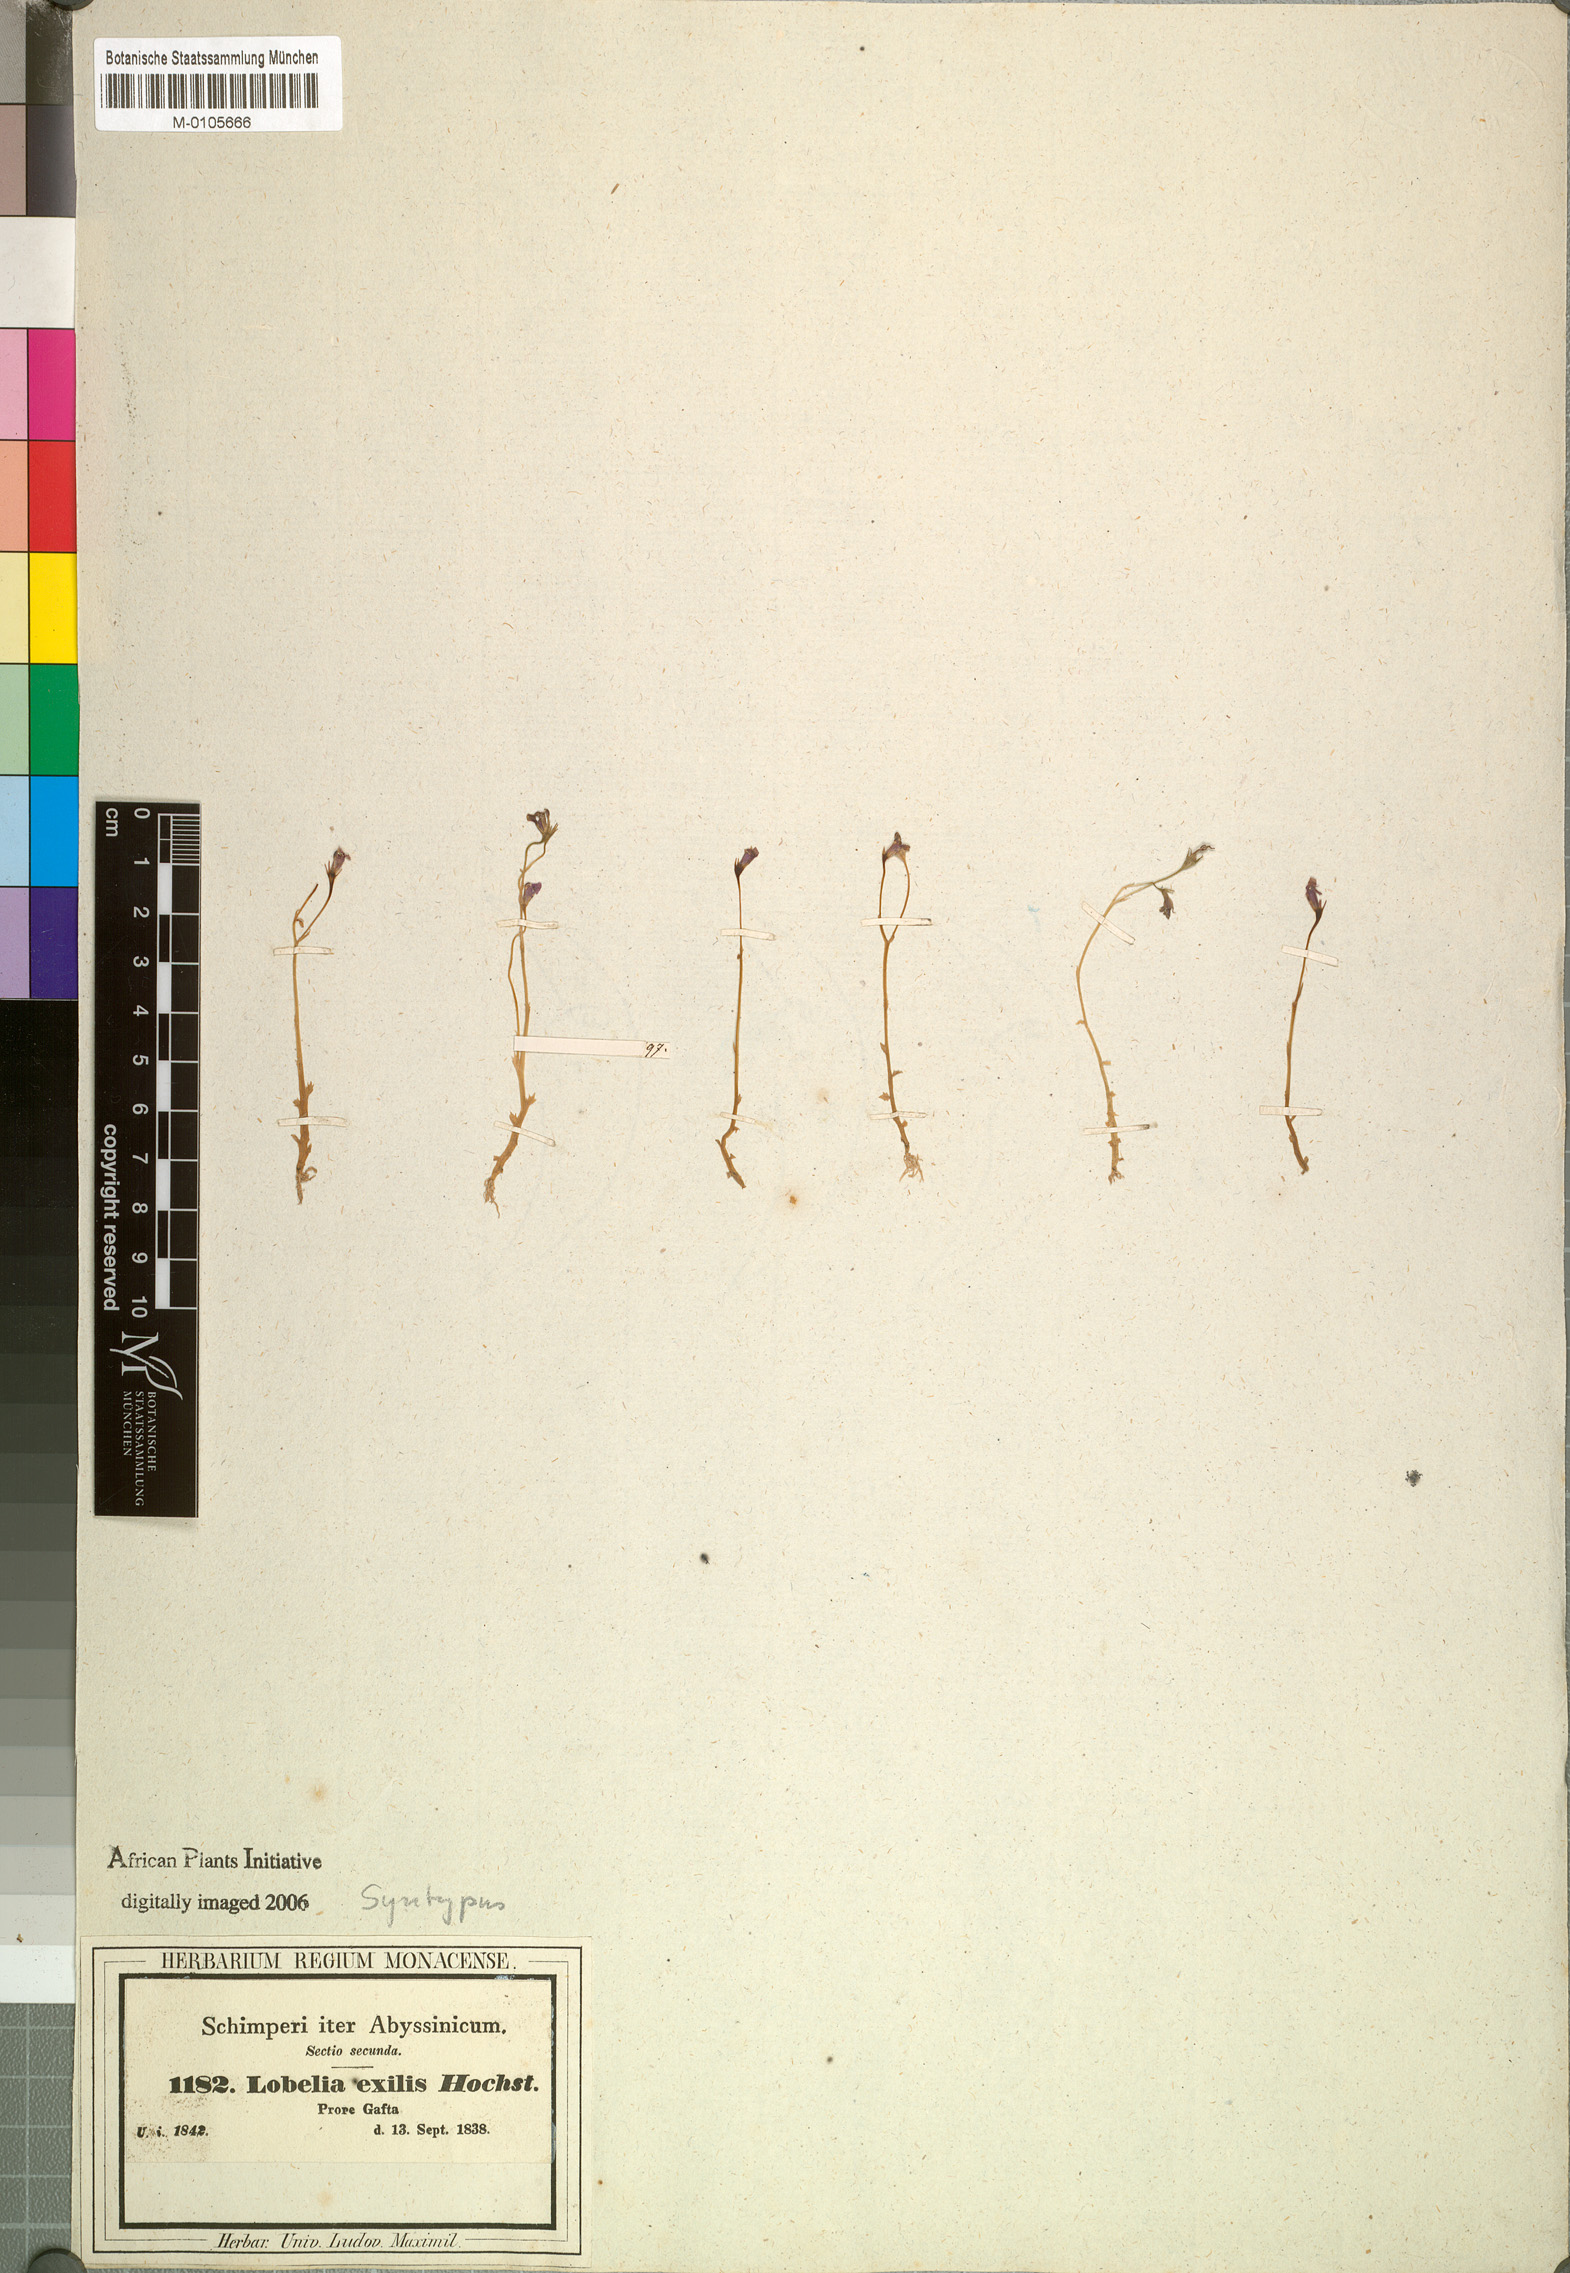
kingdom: Plantae
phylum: Tracheophyta
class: Magnoliopsida
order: Asterales
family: Campanulaceae
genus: Lobelia
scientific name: Lobelia exilis
